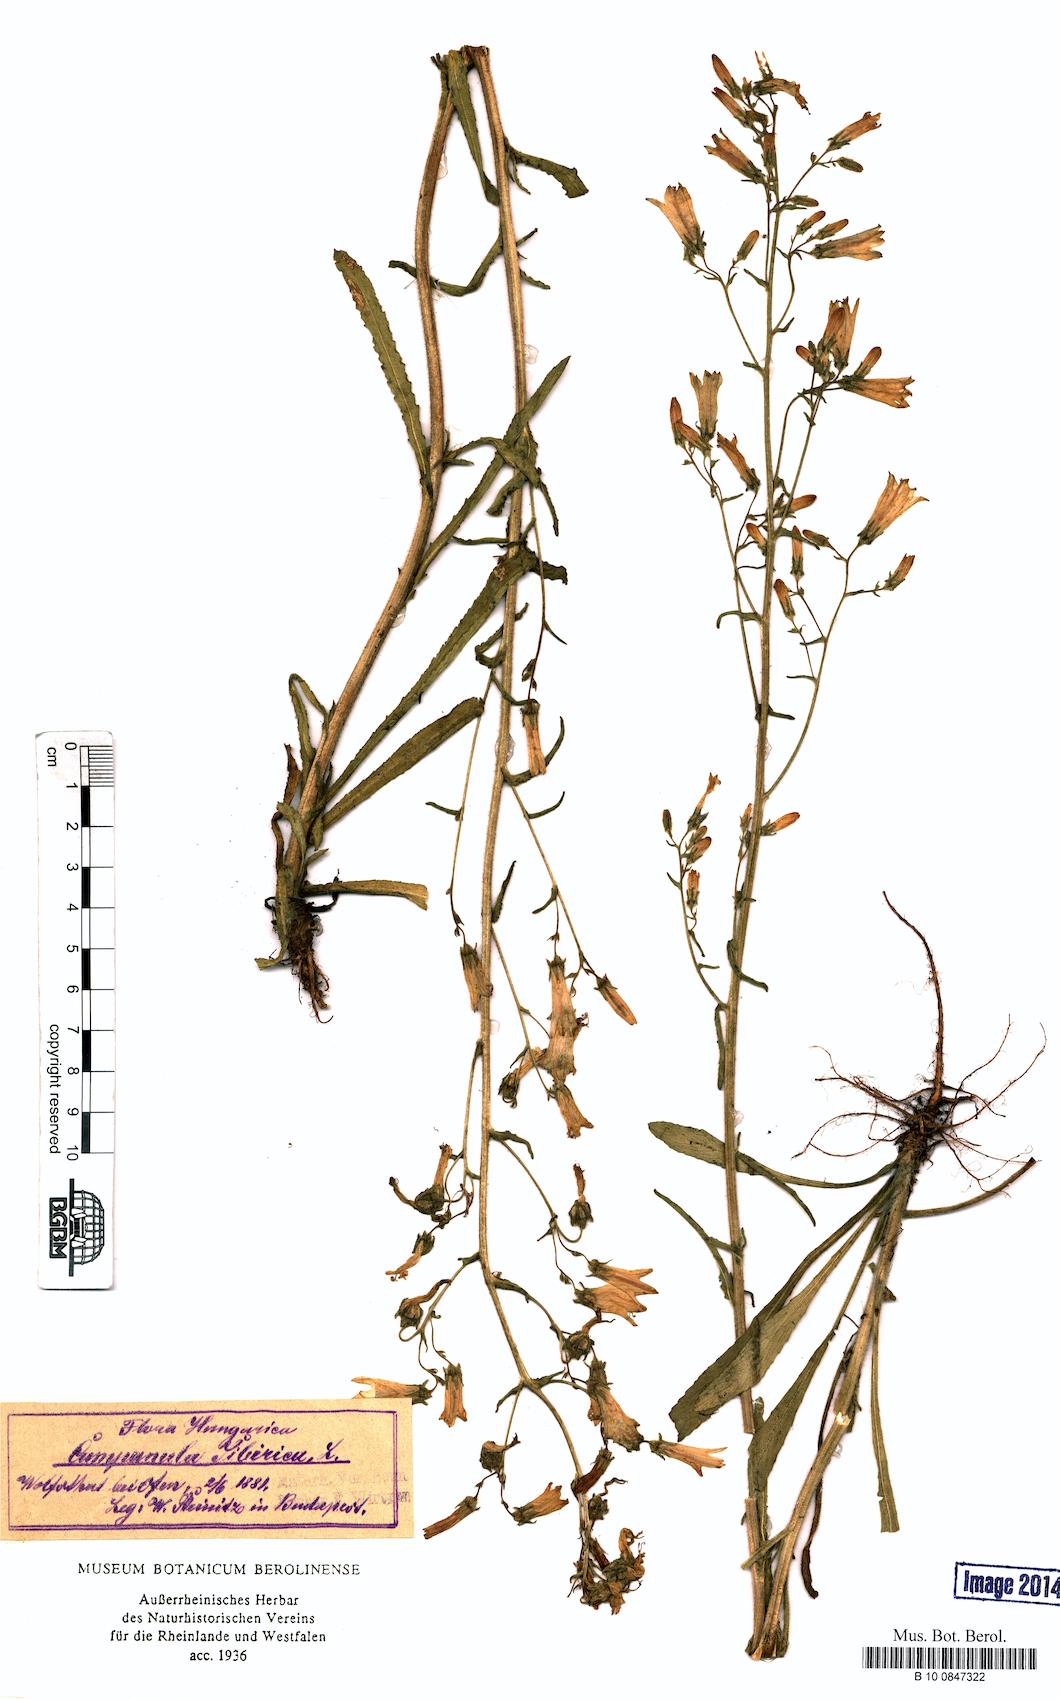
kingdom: Plantae
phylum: Tracheophyta
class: Magnoliopsida
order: Asterales
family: Campanulaceae
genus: Campanula
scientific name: Campanula sibirica
